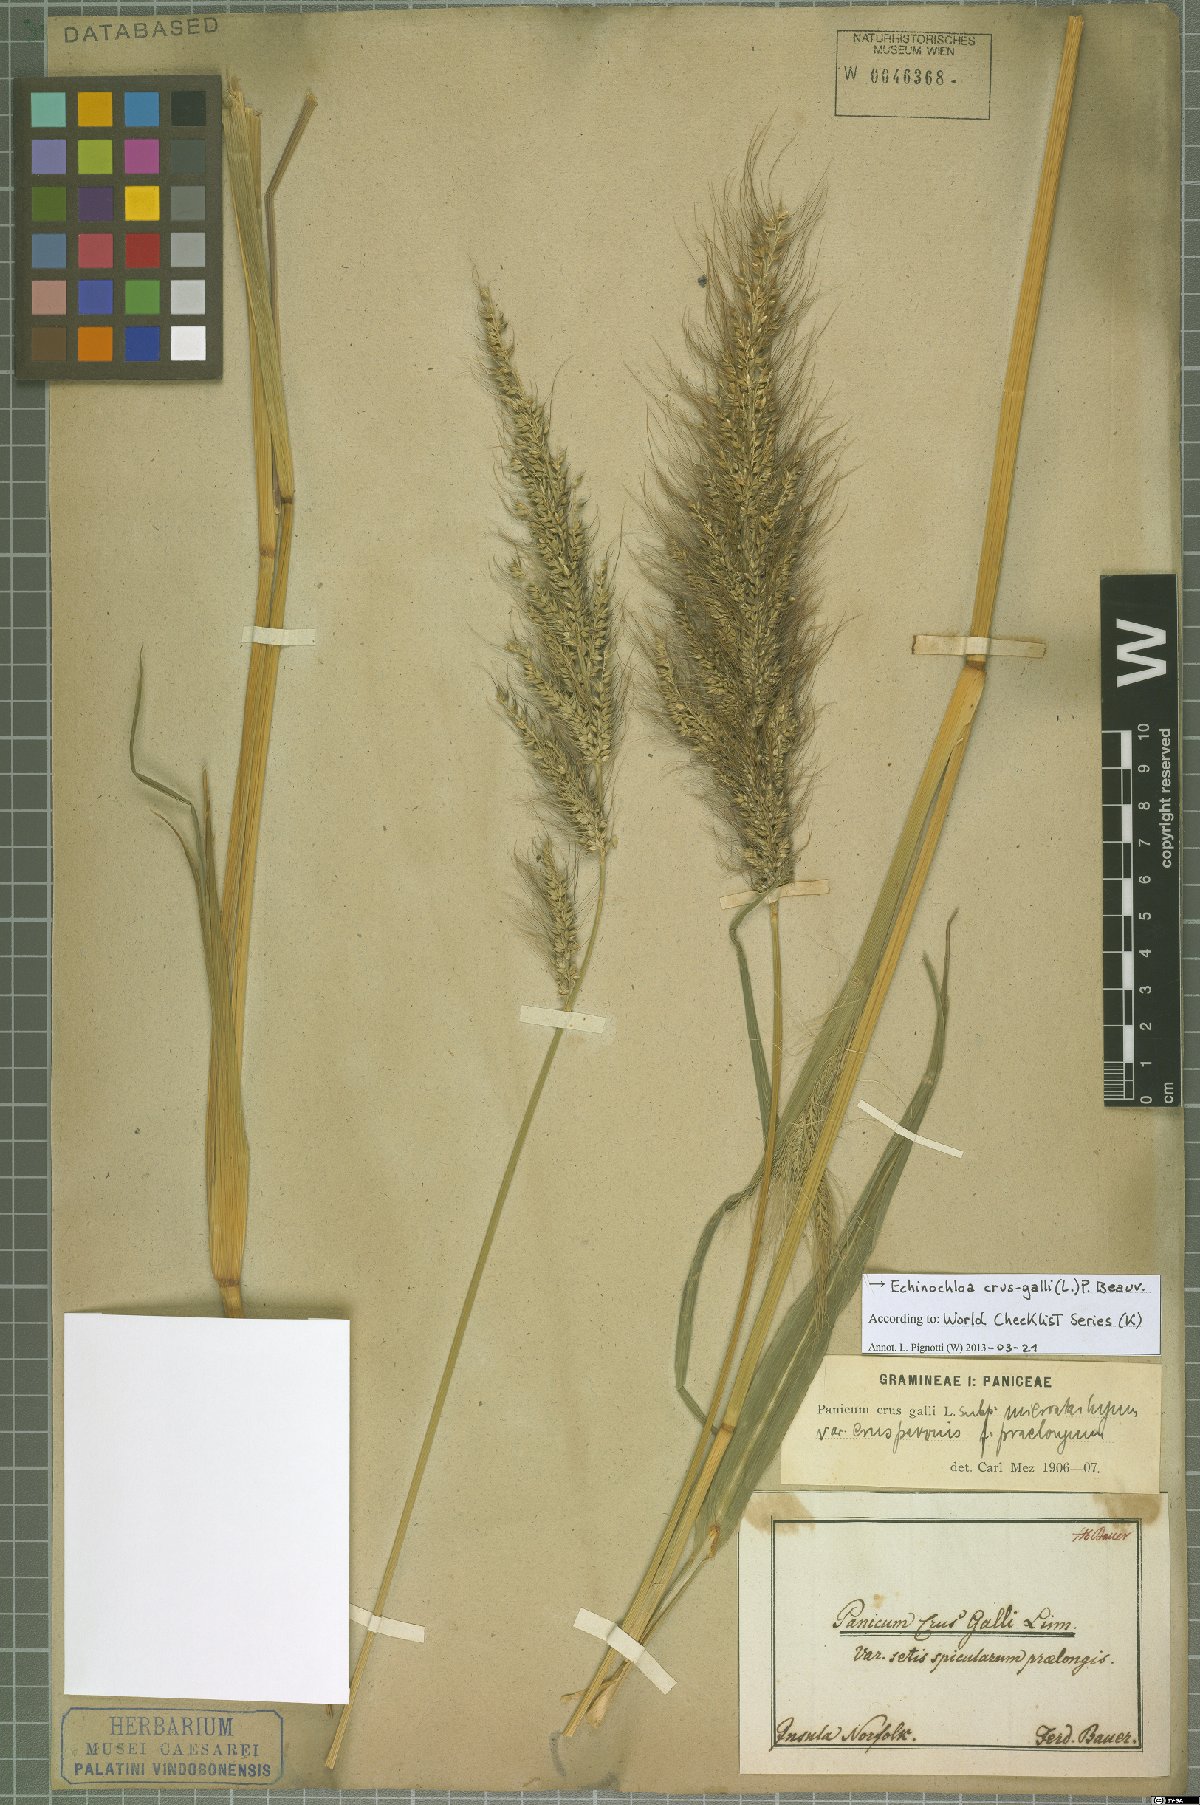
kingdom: Plantae
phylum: Tracheophyta
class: Liliopsida
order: Poales
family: Poaceae
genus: Echinochloa
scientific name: Echinochloa crus-galli
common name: Cockspur
